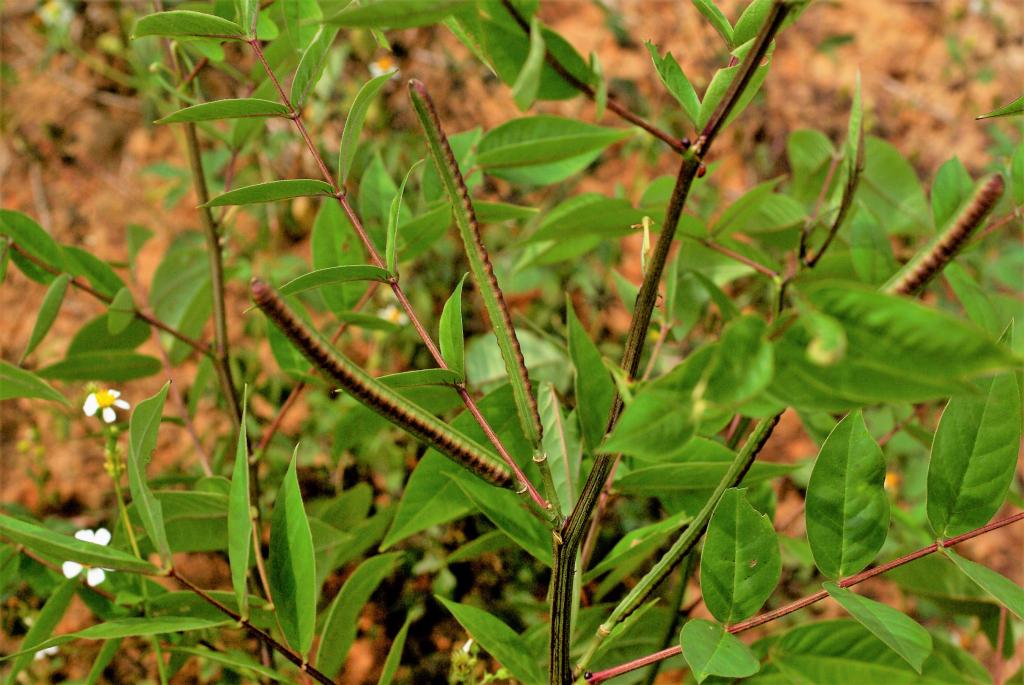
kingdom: Plantae
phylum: Tracheophyta
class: Magnoliopsida
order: Fabales
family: Fabaceae
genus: Senna
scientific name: Senna occidentalis
